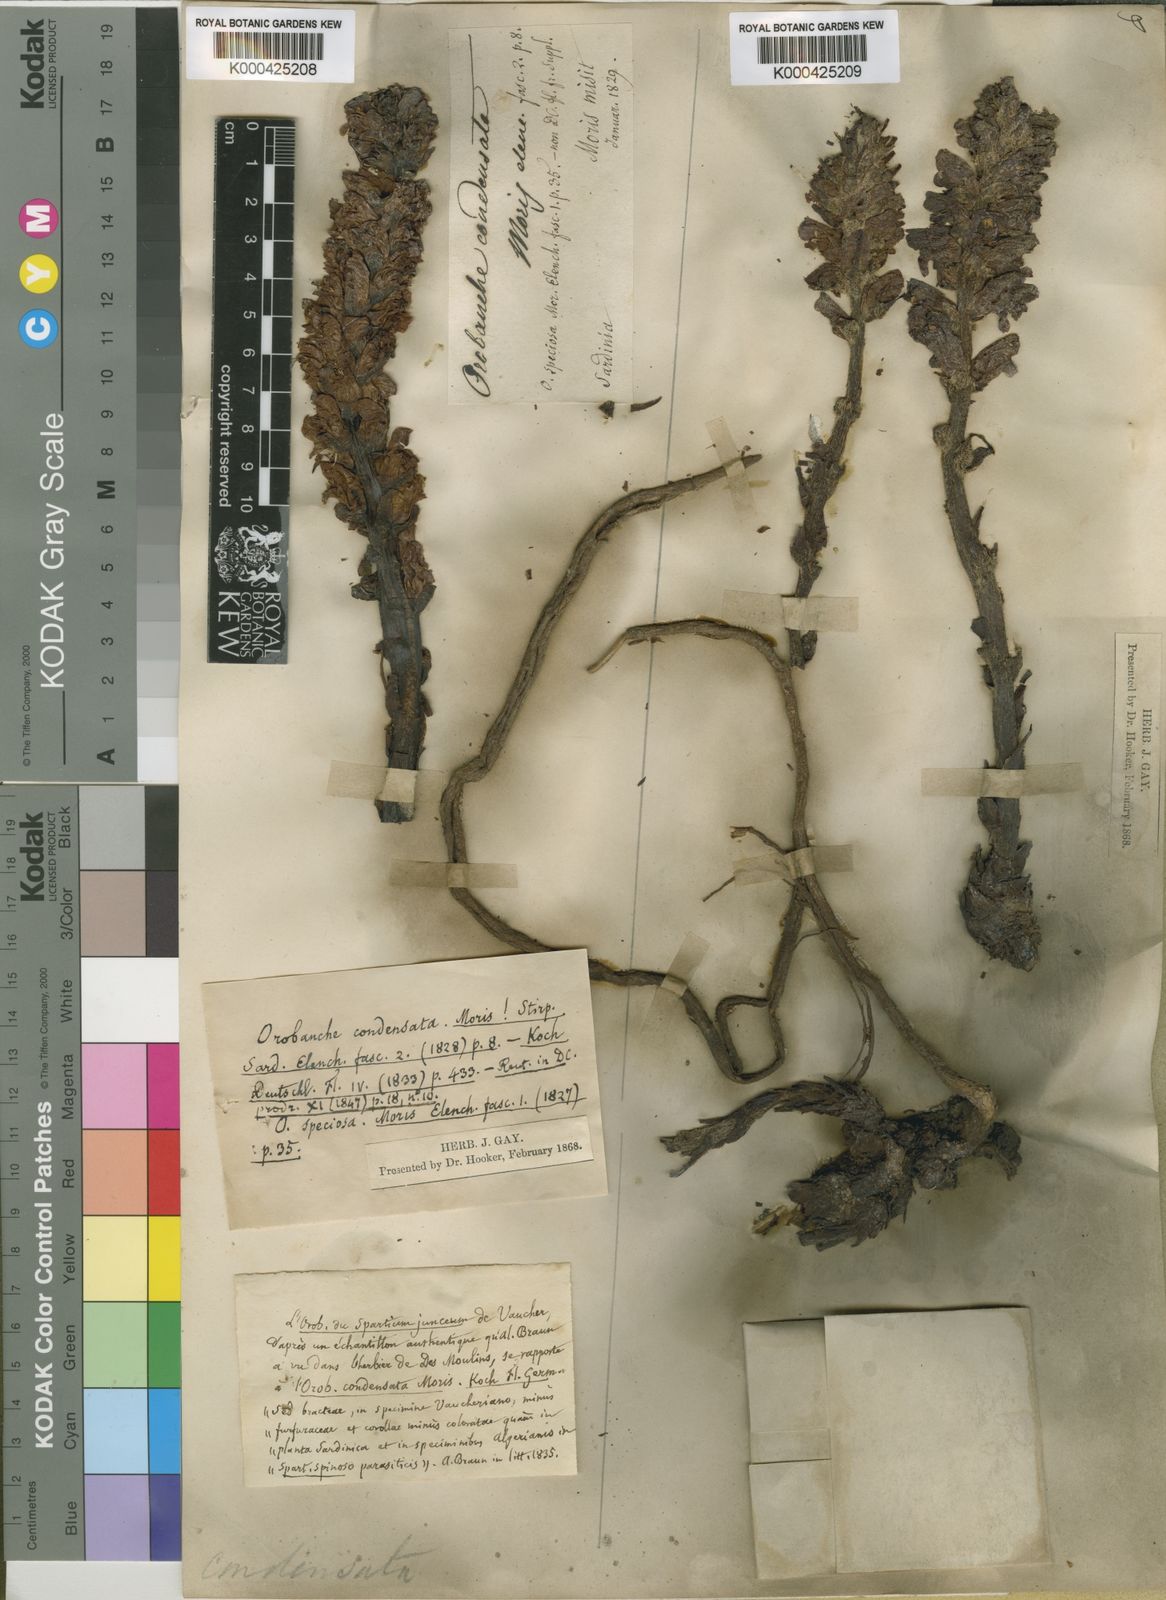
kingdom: Plantae
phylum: Tracheophyta
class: Magnoliopsida
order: Lamiales
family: Orobanchaceae
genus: Orobanche
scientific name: Orobanche variegata
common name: Variegated broomrape
